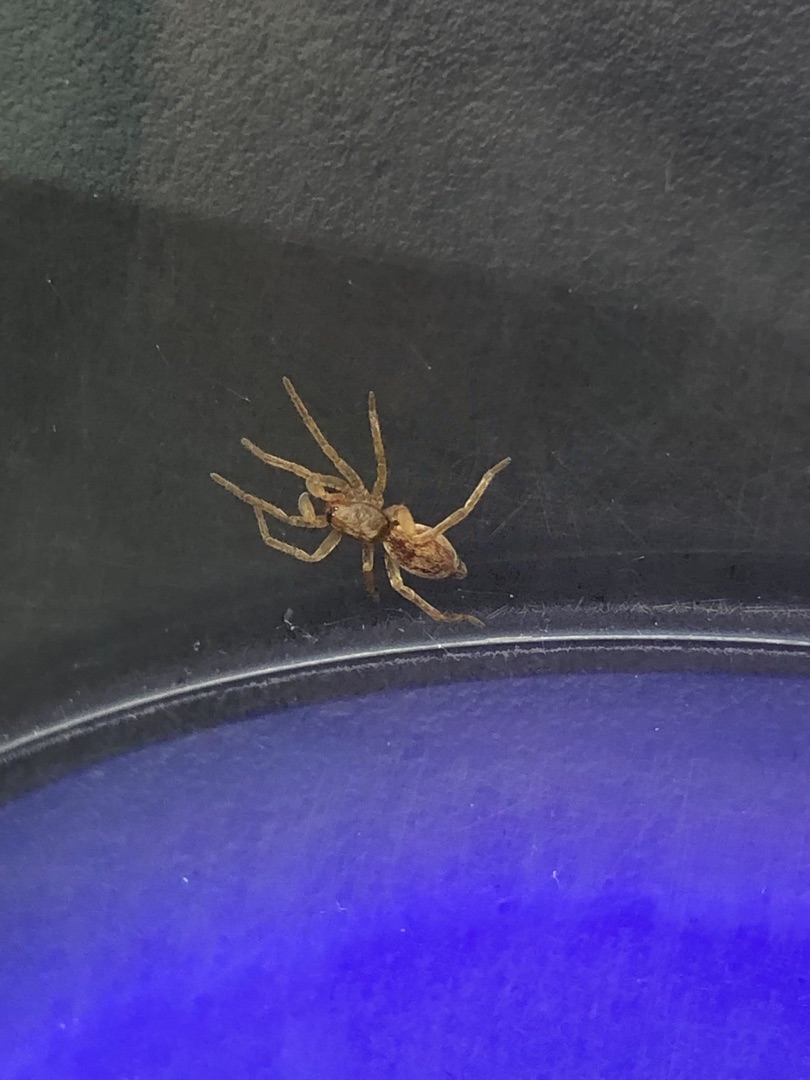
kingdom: Animalia
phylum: Arthropoda
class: Arachnida
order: Araneae
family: Clubionidae
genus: Clubiona
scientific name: Clubiona
